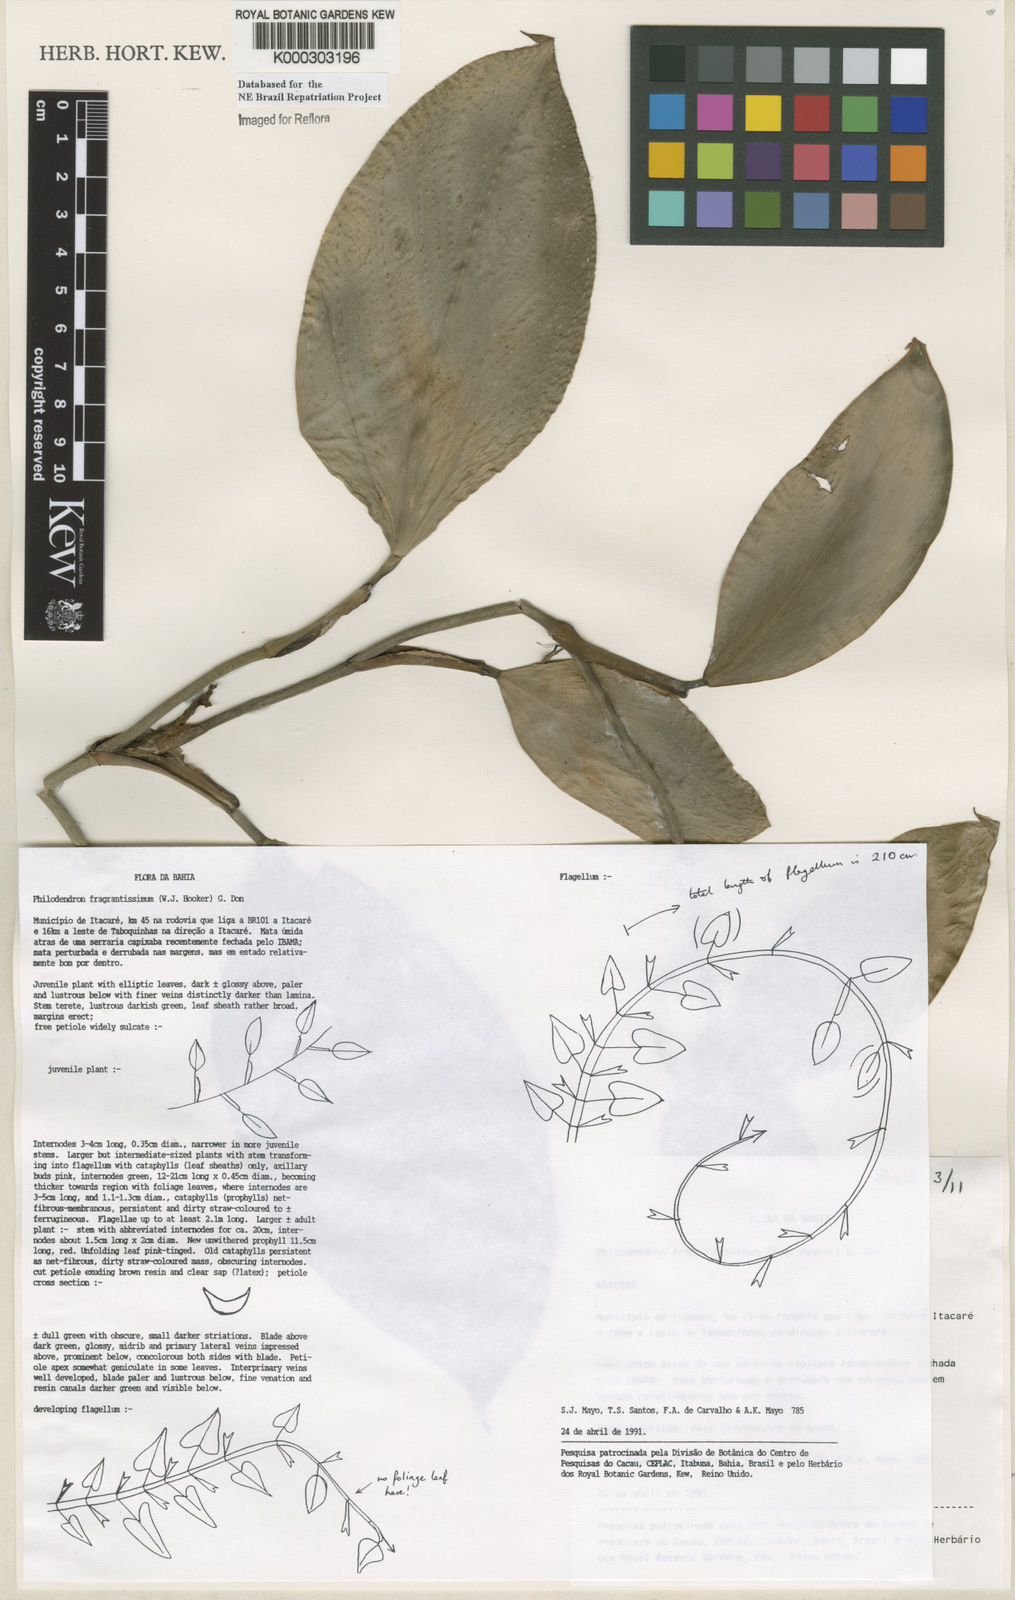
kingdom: Plantae
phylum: Tracheophyta
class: Liliopsida
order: Alismatales
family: Araceae
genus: Philodendron
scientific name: Philodendron fragrantissimum
